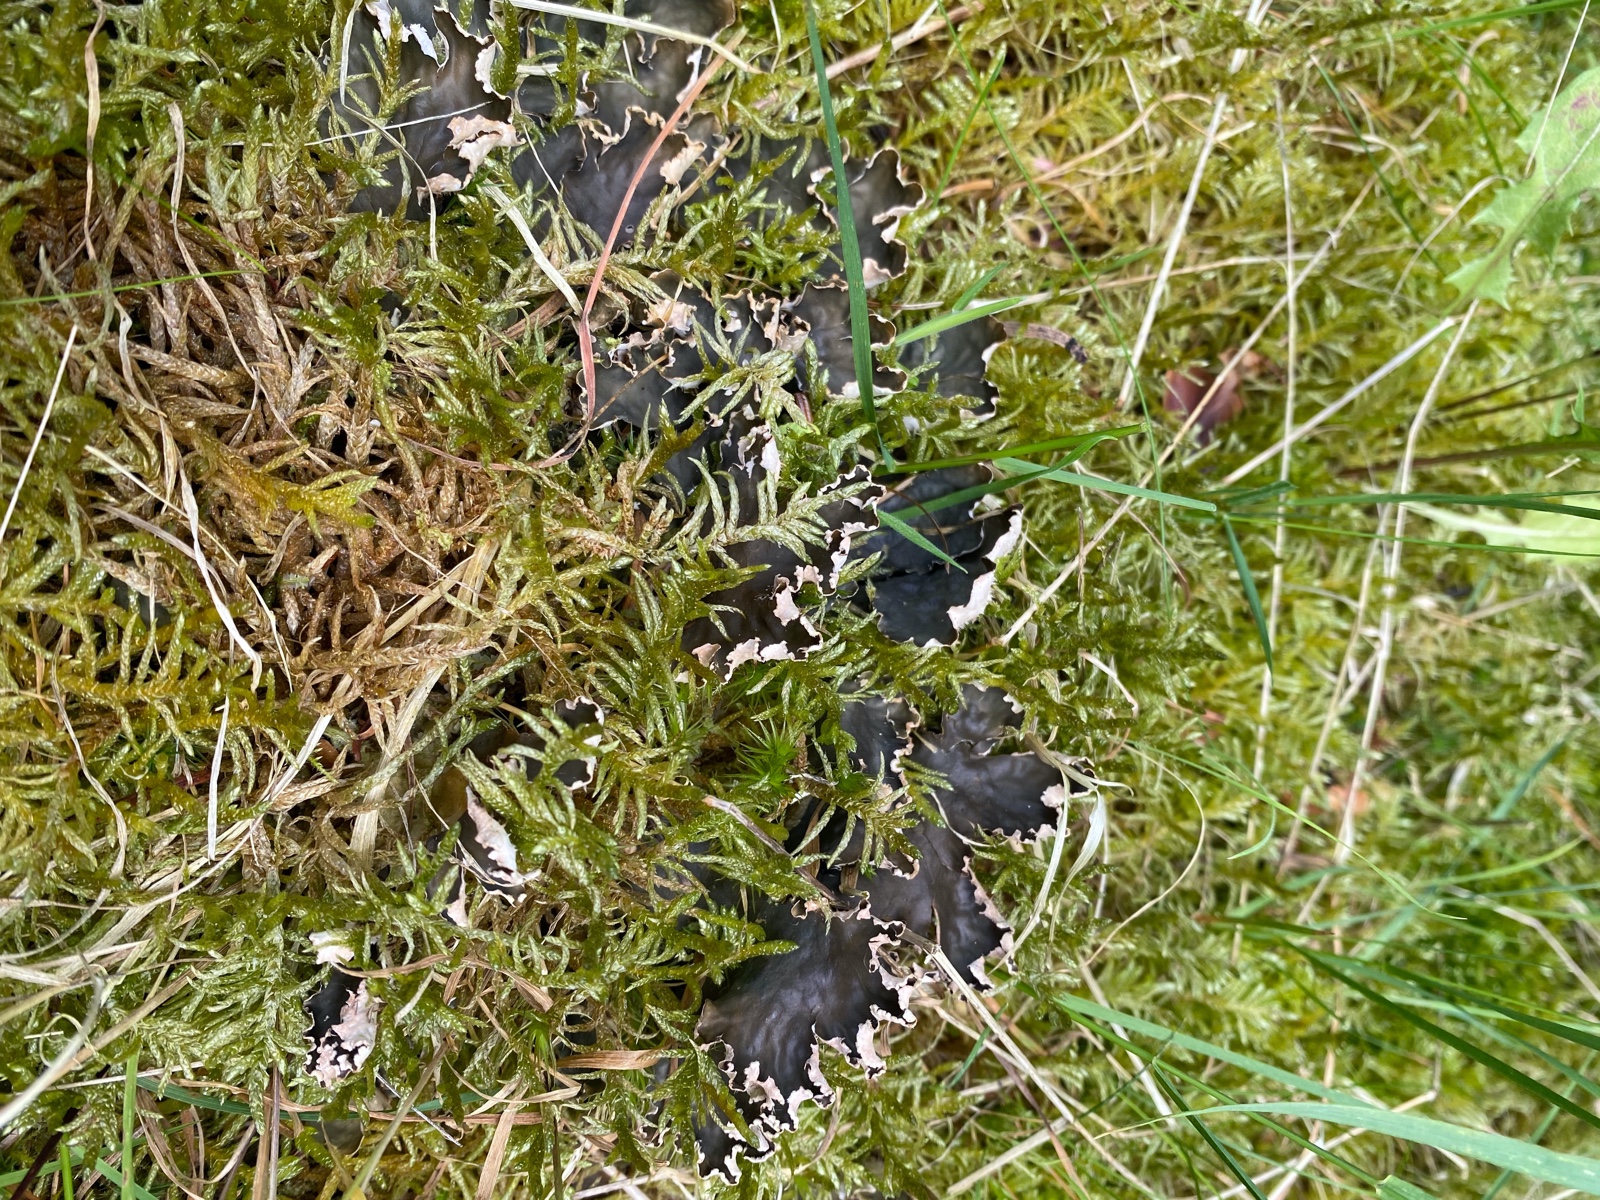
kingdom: Fungi
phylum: Ascomycota
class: Lecanoromycetes
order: Peltigerales
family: Peltigeraceae
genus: Peltigera
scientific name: Peltigera hymenina
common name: hinde-skjoldlav
